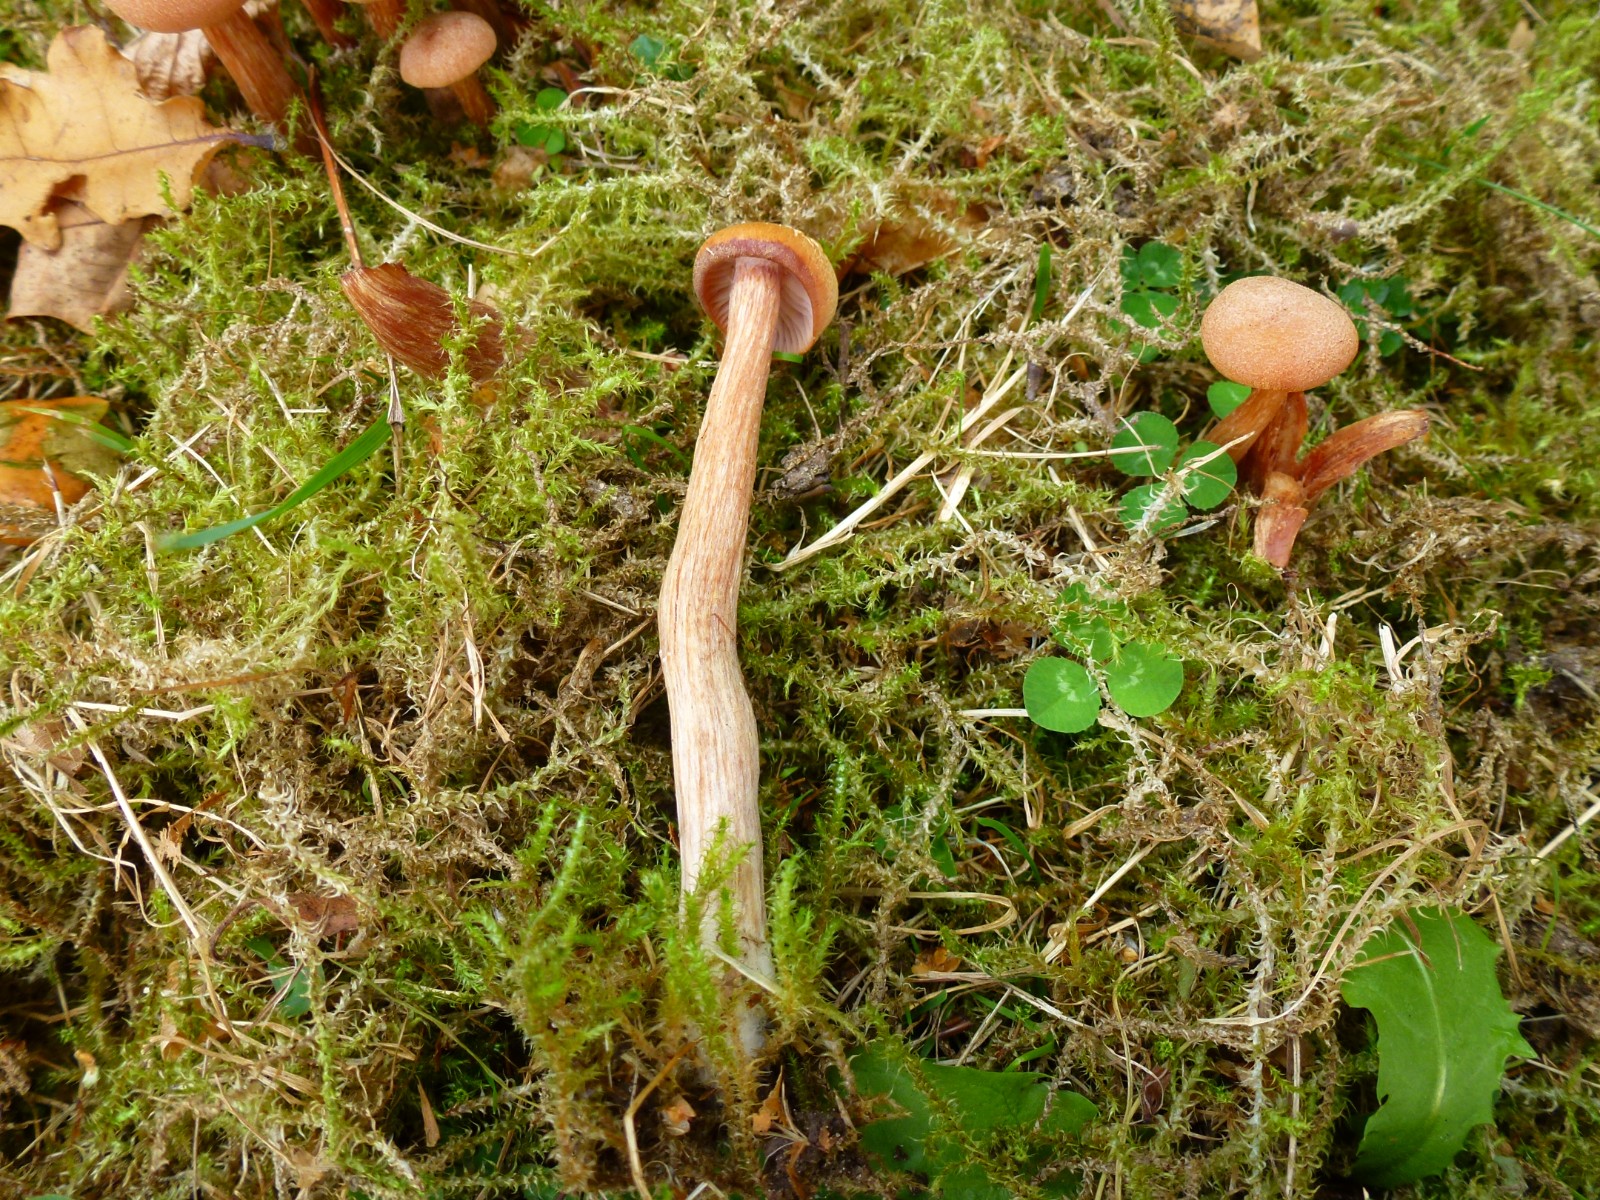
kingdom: Fungi
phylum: Basidiomycota
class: Agaricomycetes
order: Agaricales
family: Hydnangiaceae
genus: Laccaria
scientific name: Laccaria laccata
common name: rød ametysthat
